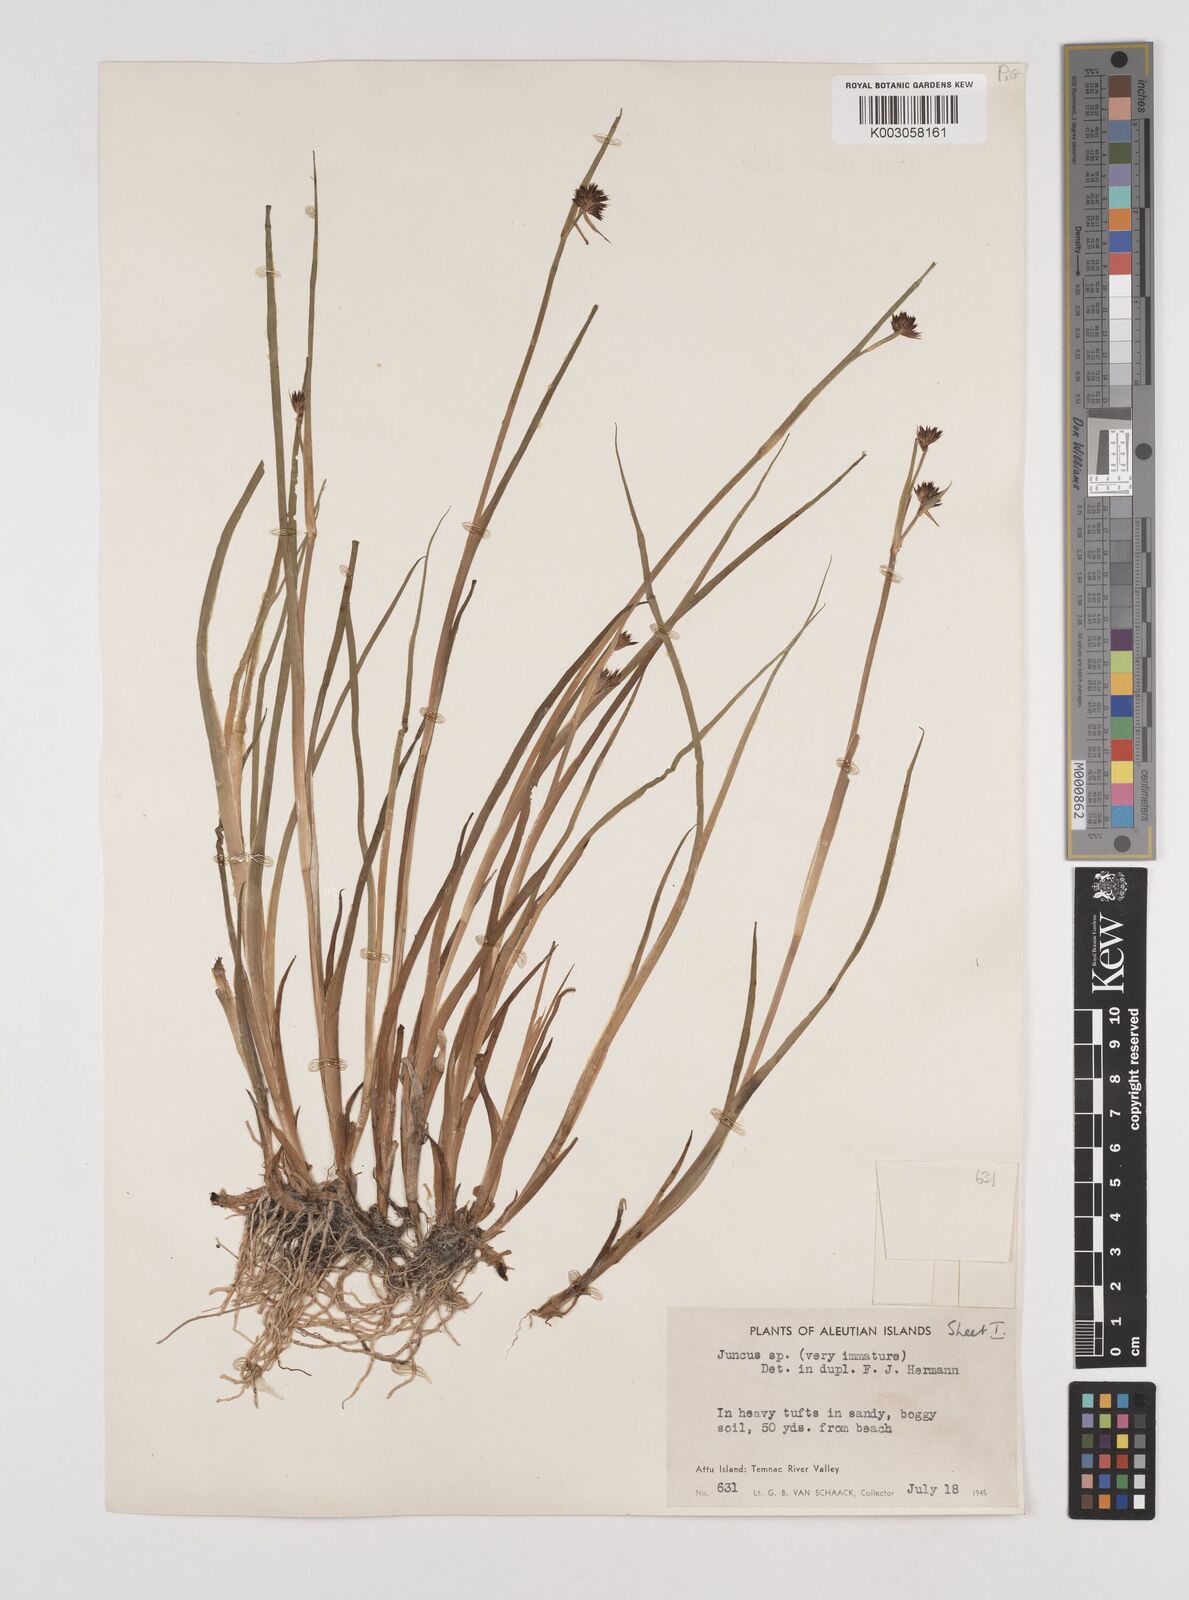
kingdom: Plantae
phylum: Tracheophyta
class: Liliopsida
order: Poales
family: Juncaceae
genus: Juncus
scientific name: Juncus
